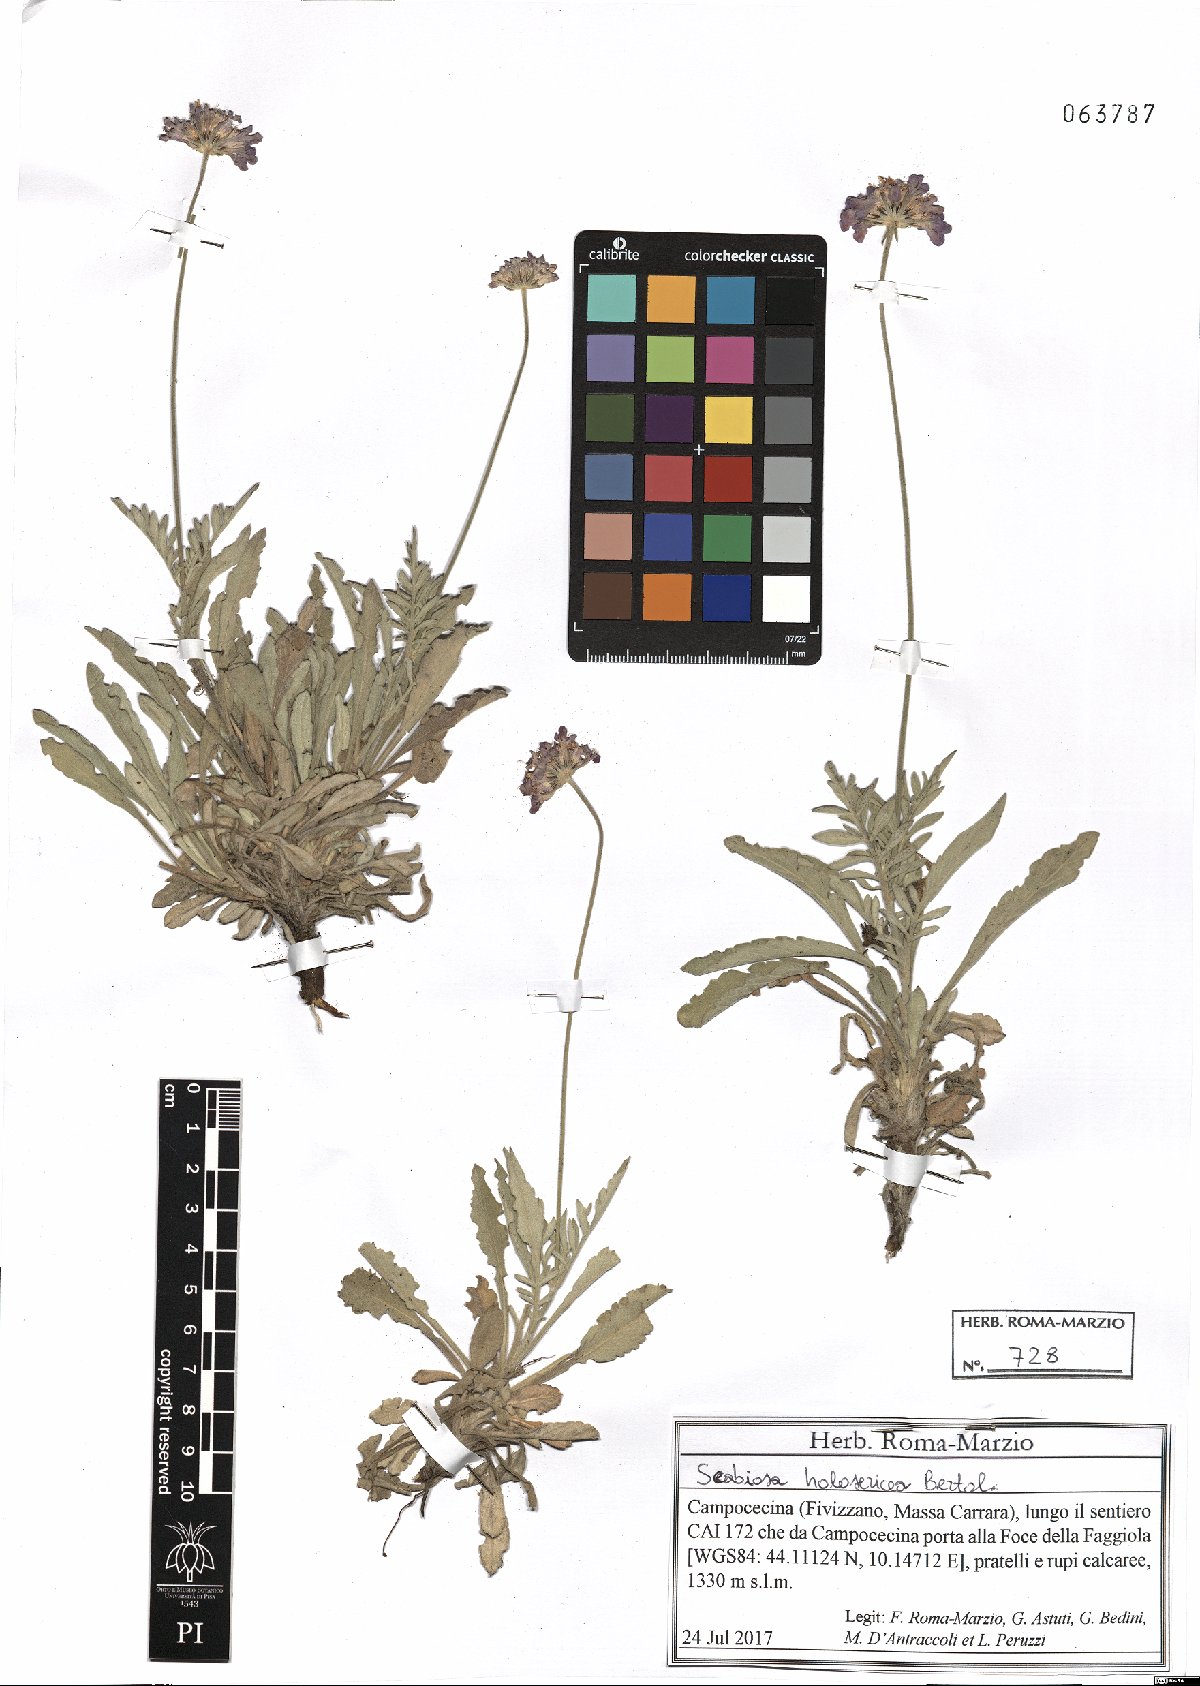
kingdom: Plantae
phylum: Tracheophyta
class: Magnoliopsida
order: Dipsacales
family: Caprifoliaceae
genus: Scabiosa
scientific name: Scabiosa holosericea
